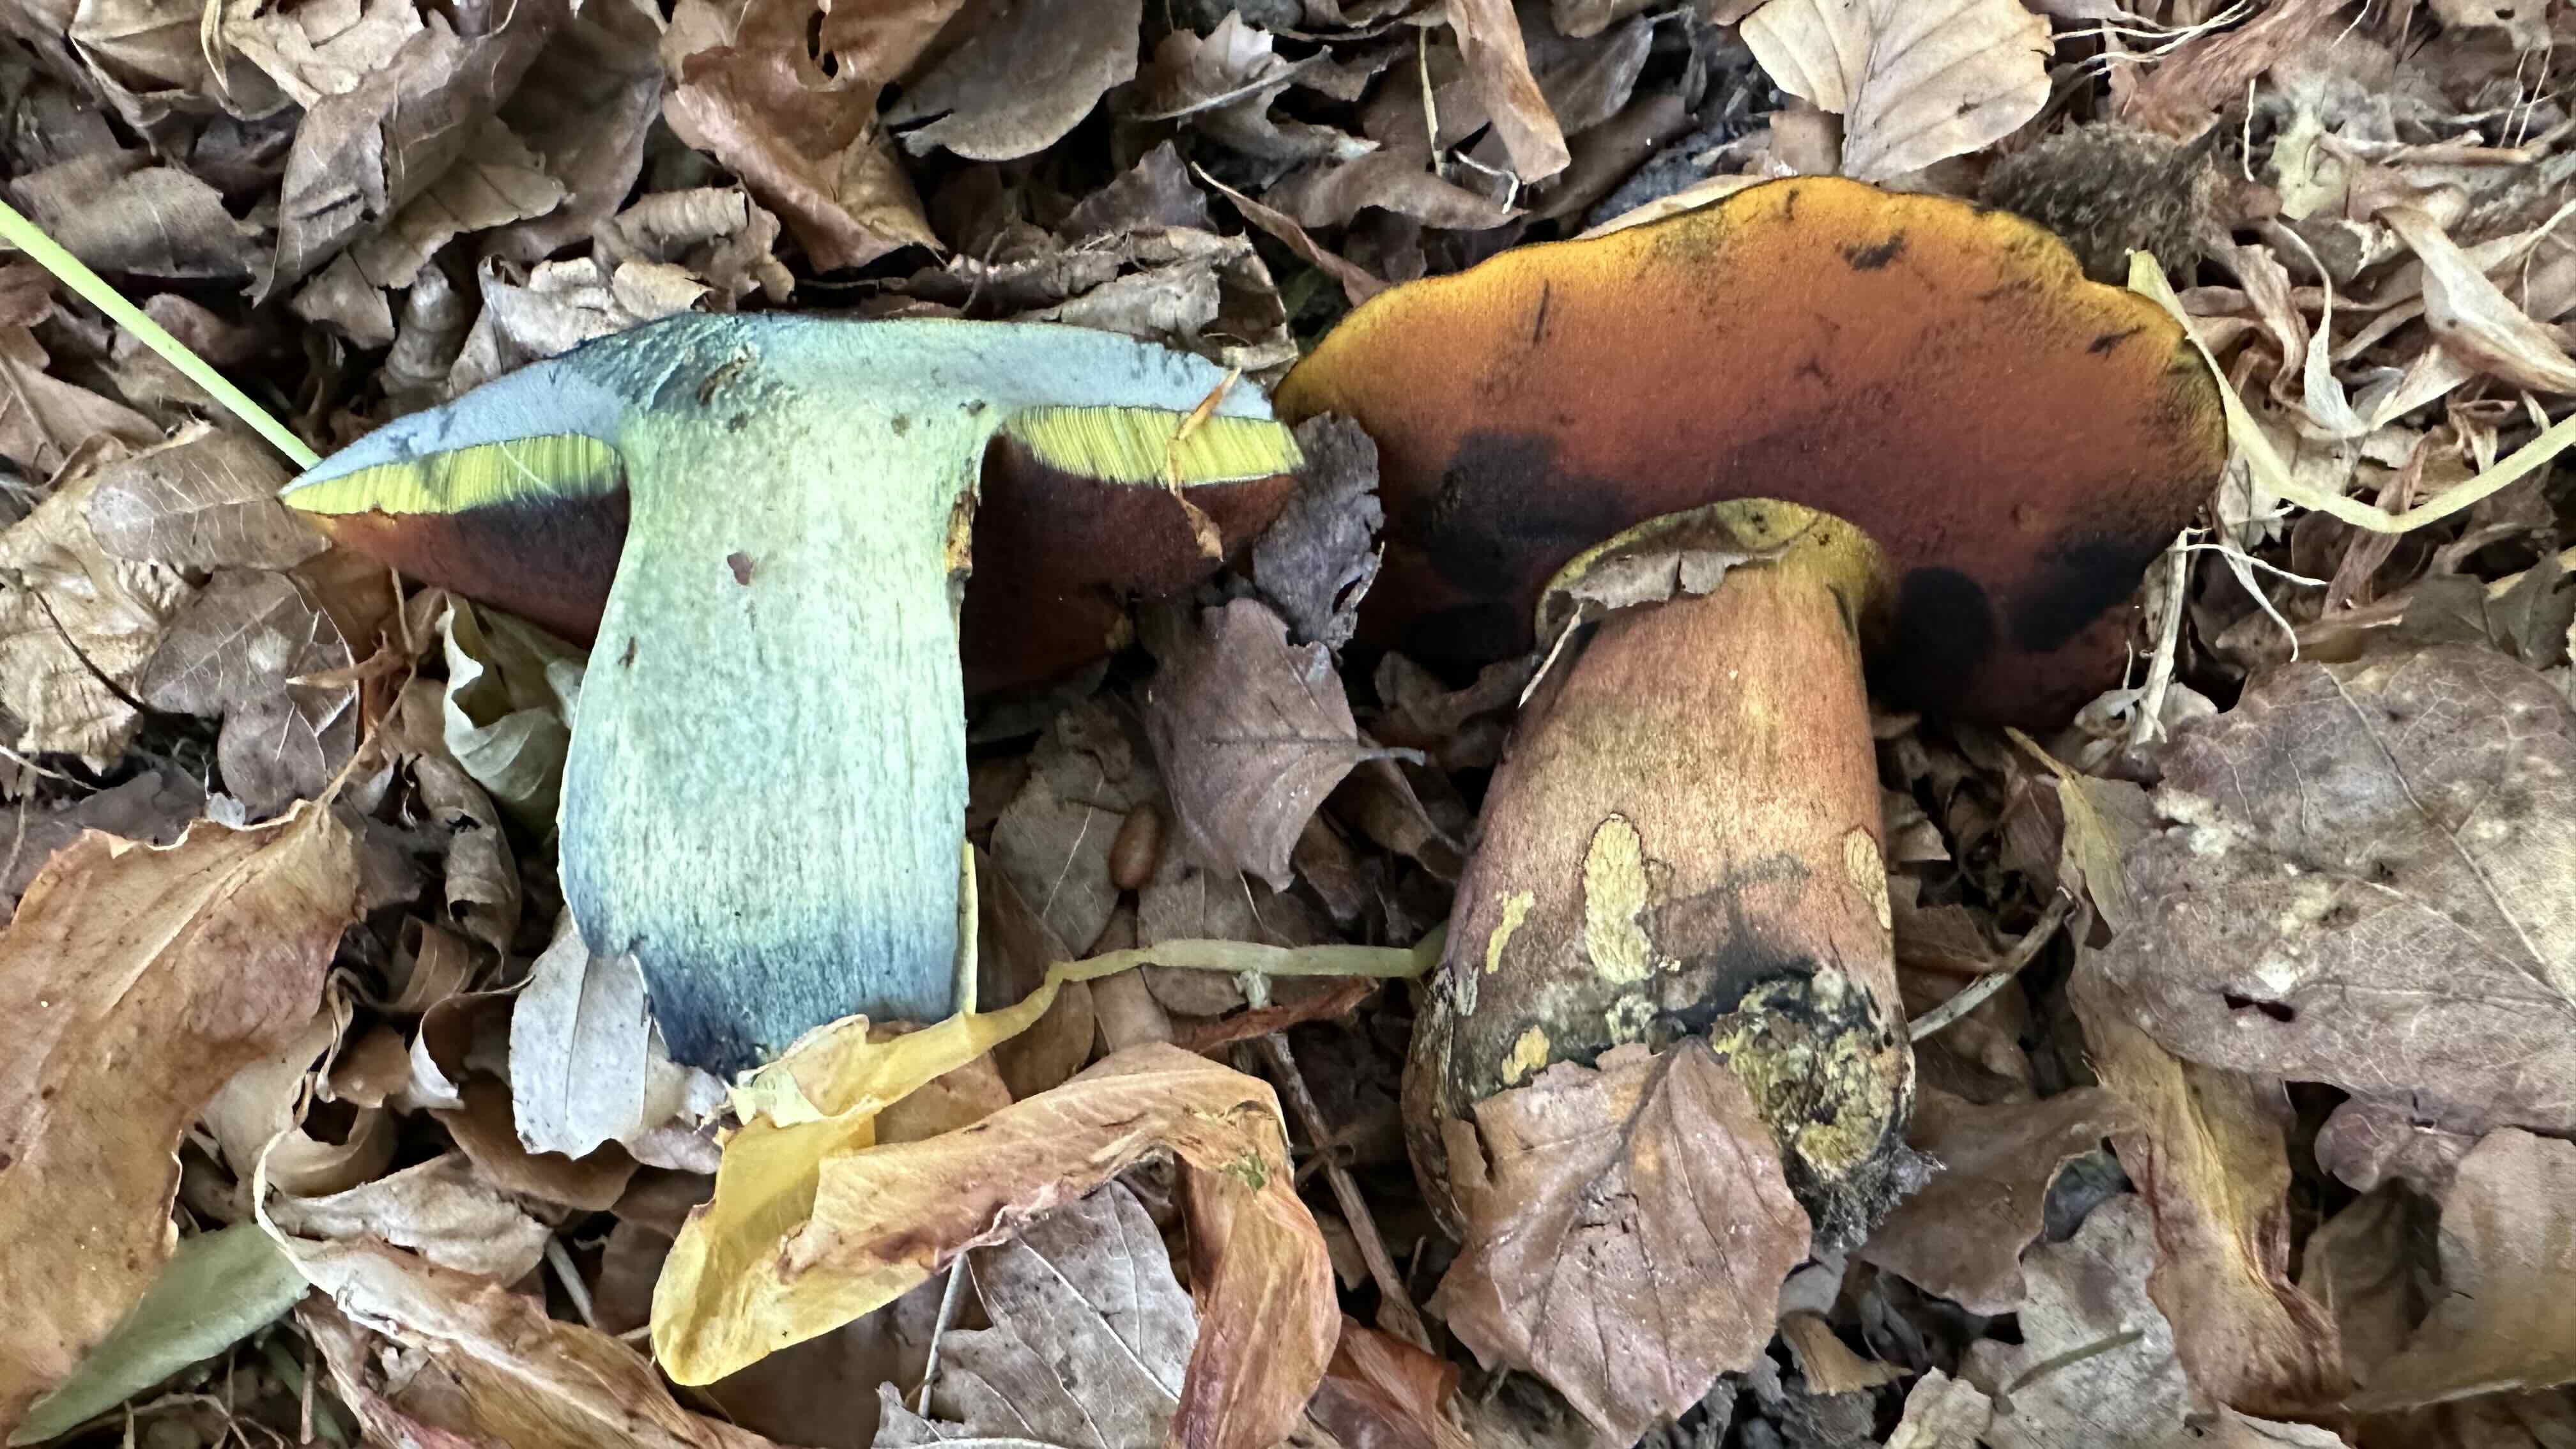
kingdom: Fungi
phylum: Basidiomycota
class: Agaricomycetes
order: Boletales
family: Boletaceae
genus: Neoboletus
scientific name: Neoboletus erythropus
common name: punktstokket indigorørhat
